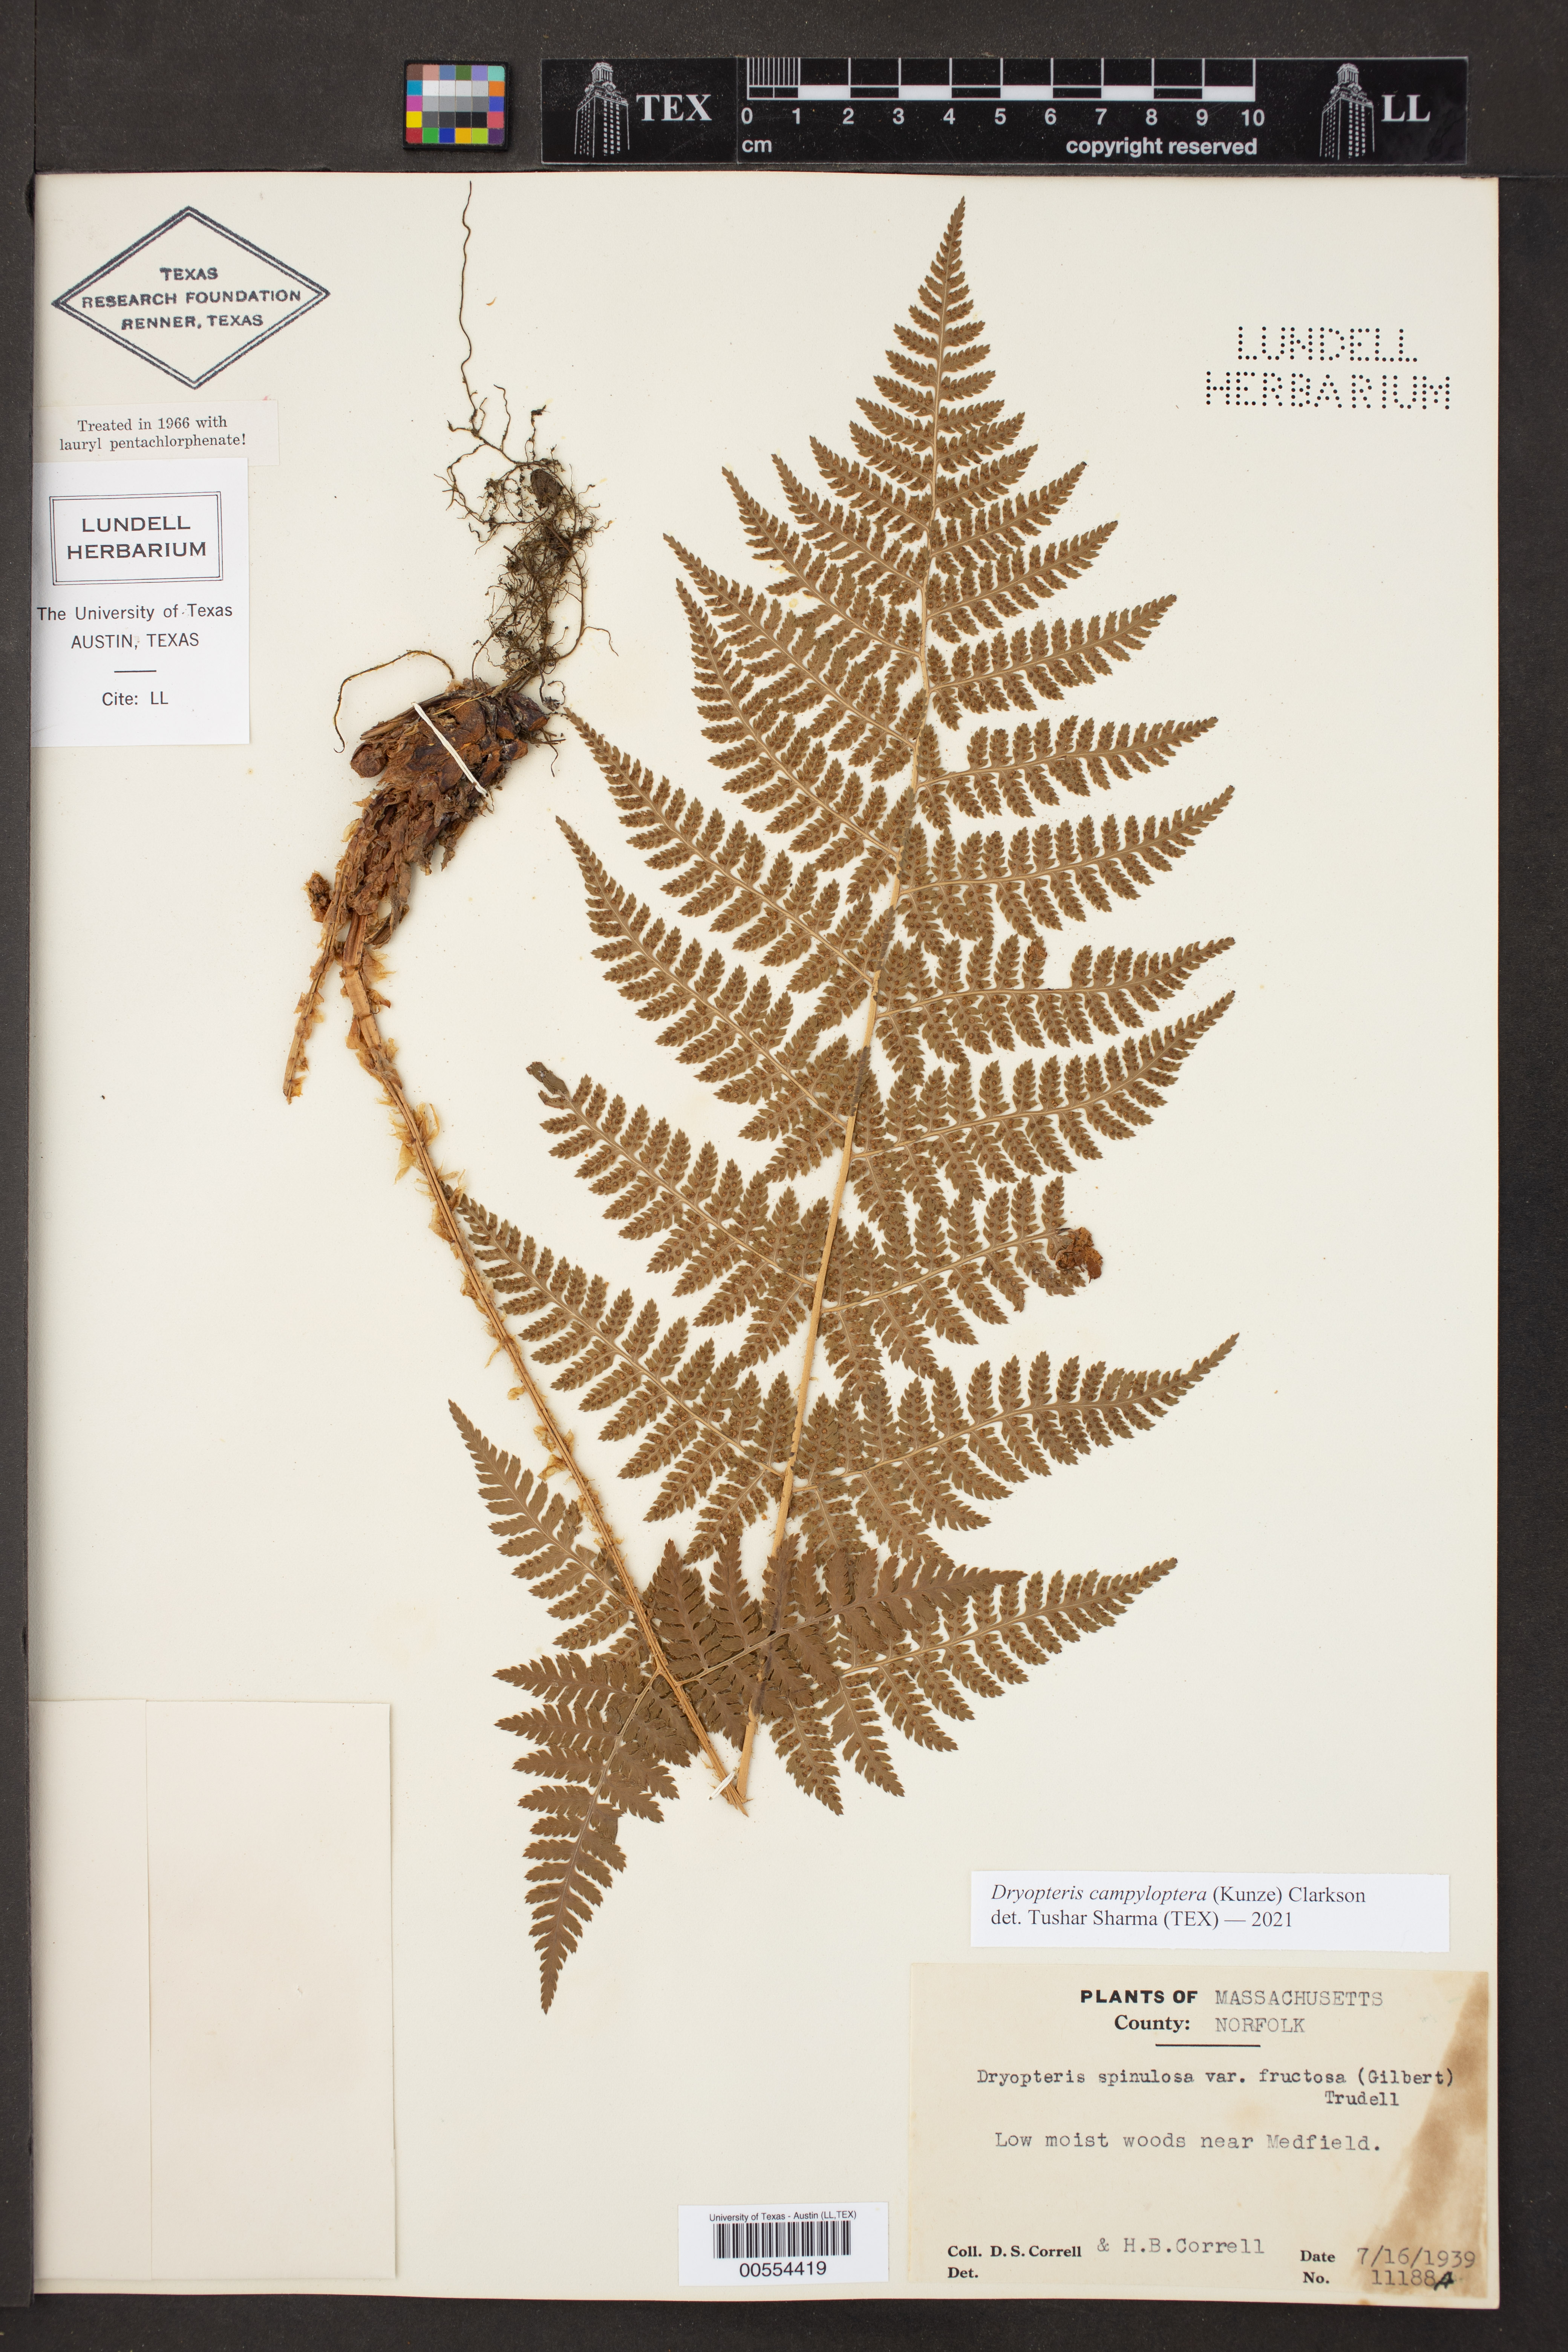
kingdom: Plantae
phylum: Tracheophyta
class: Polypodiopsida
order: Polypodiales
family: Dryopteridaceae
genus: Dryopteris
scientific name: Dryopteris campyloptera
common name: Mountain wood fern
